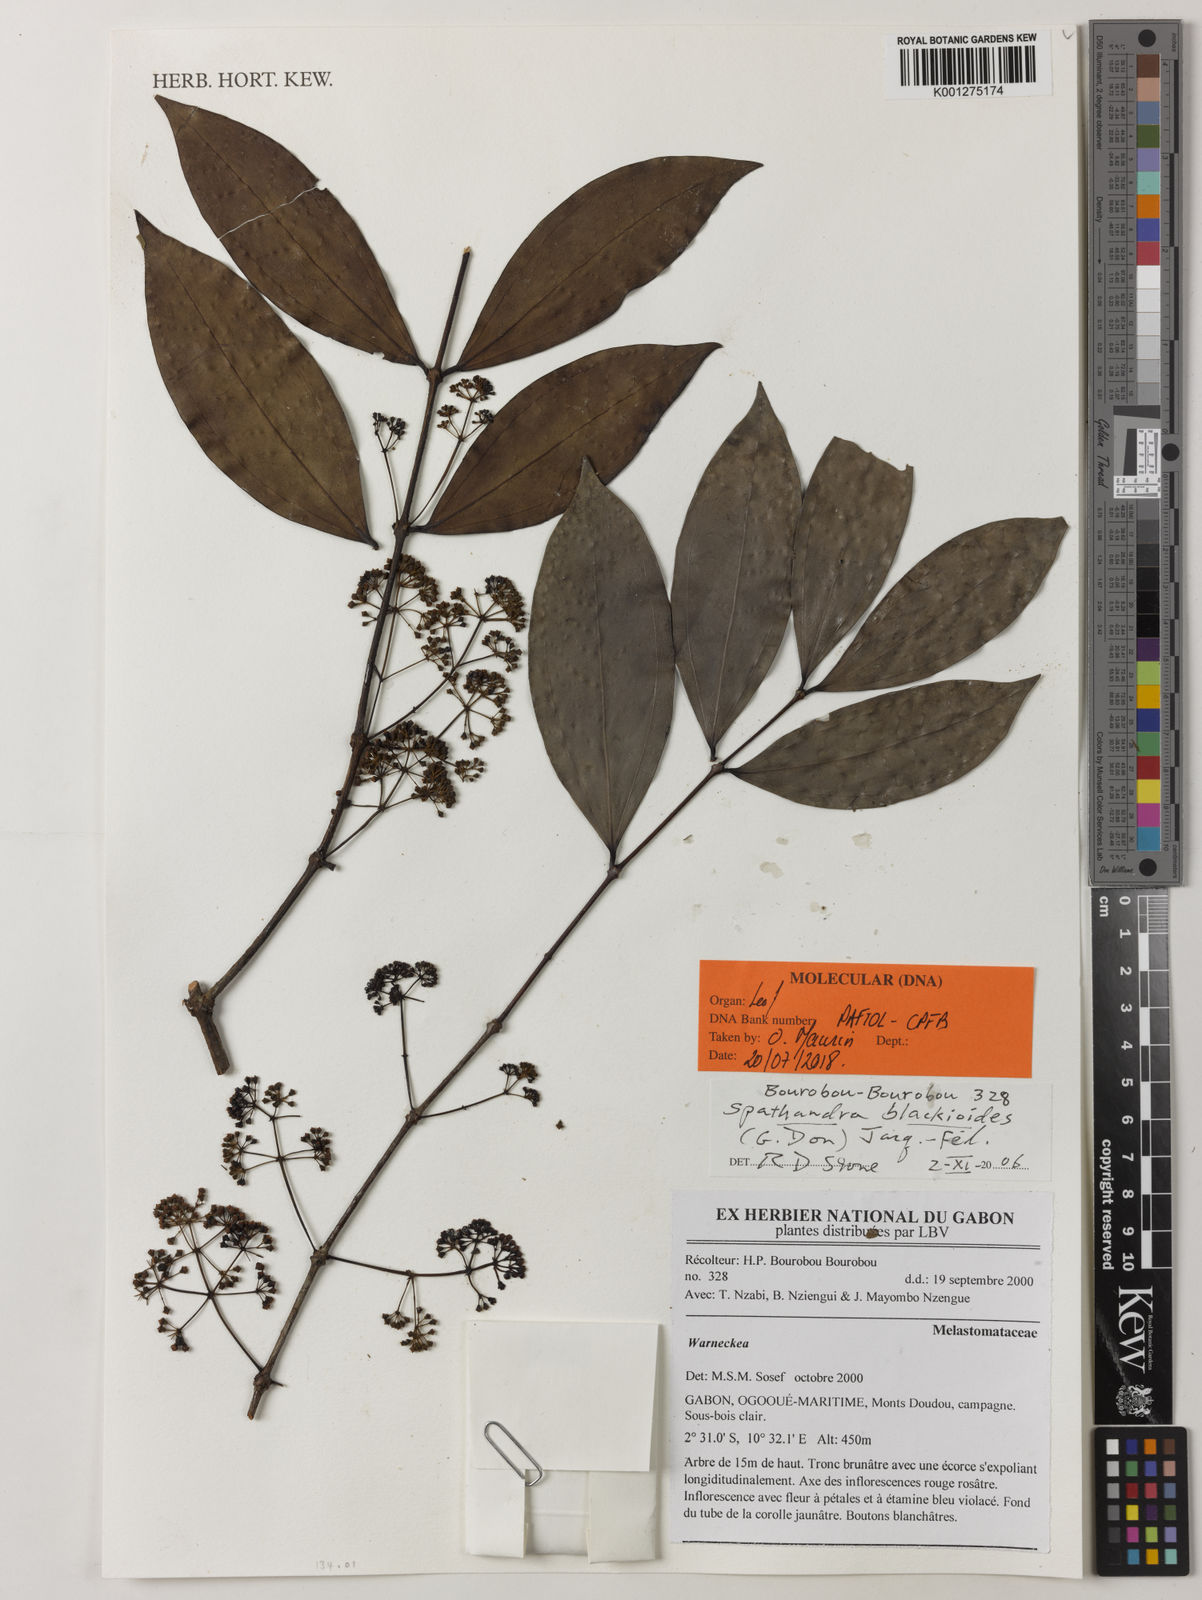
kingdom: Plantae
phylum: Tracheophyta
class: Magnoliopsida
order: Myrtales
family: Melastomataceae
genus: Spathandra
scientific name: Spathandra
